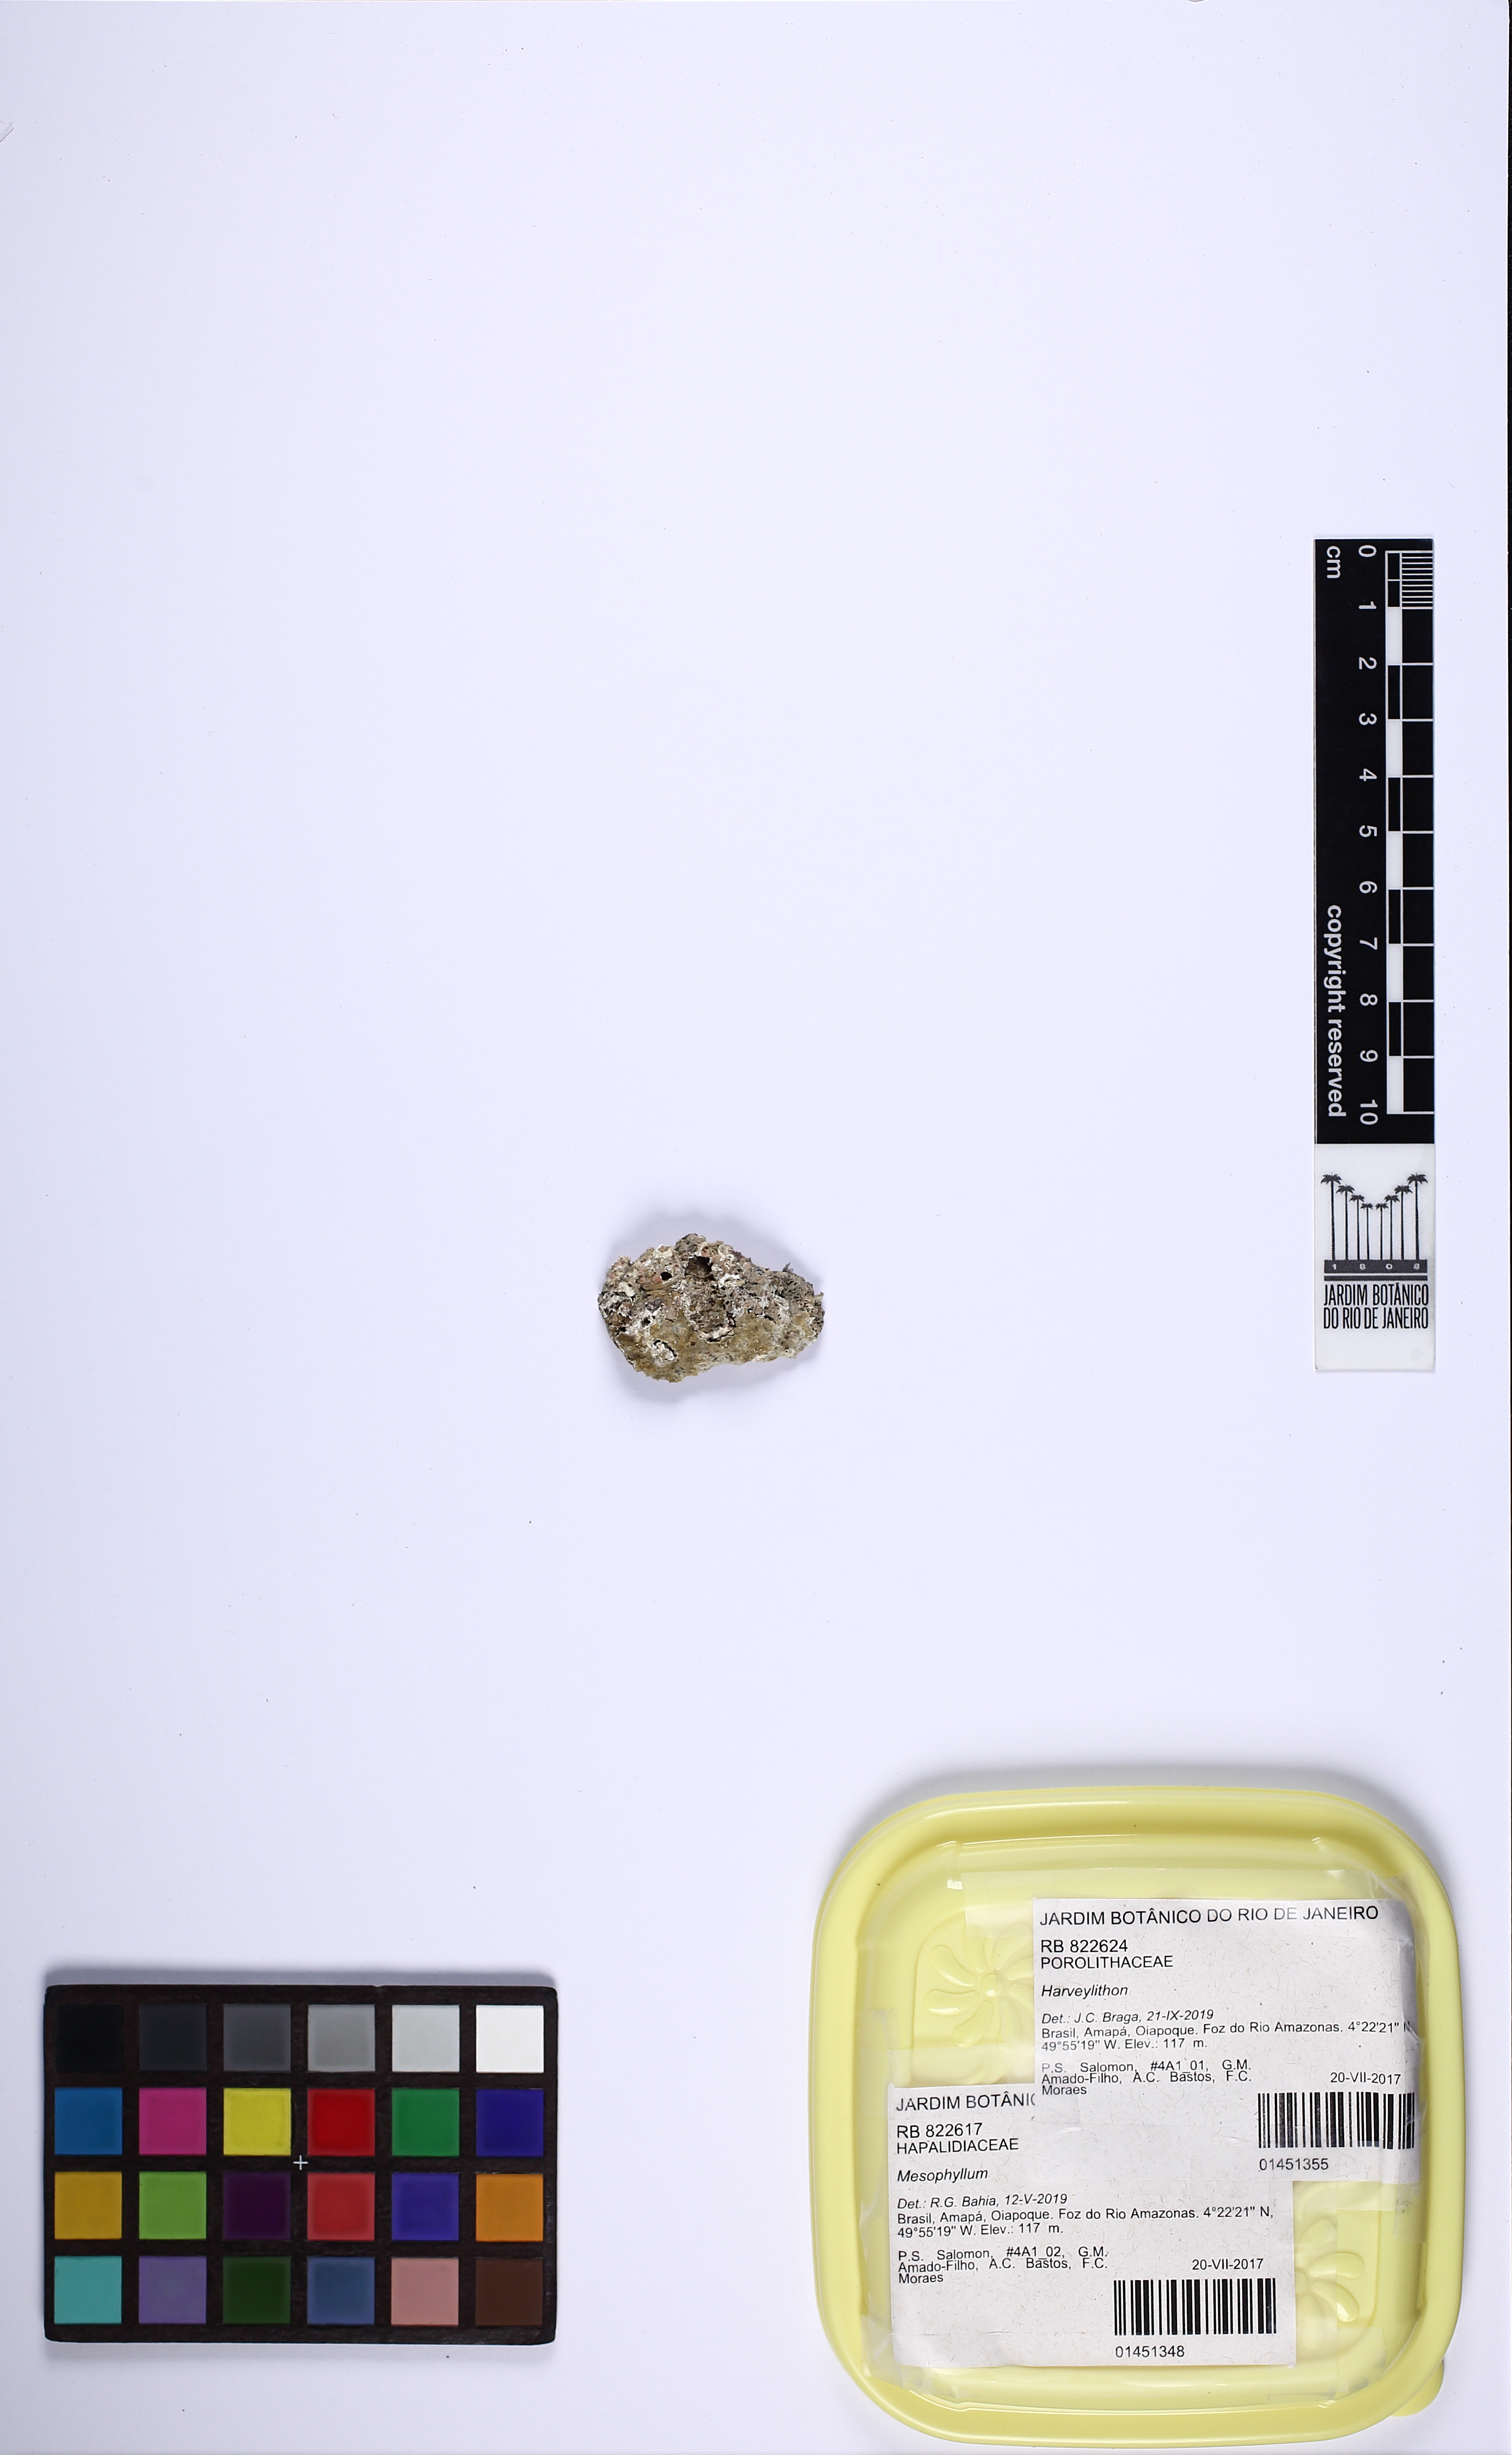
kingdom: Plantae
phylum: Rhodophyta
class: Florideophyceae
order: Corallinales
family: Mesophyllumaceae
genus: Mesophyllum
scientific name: Mesophyllum
